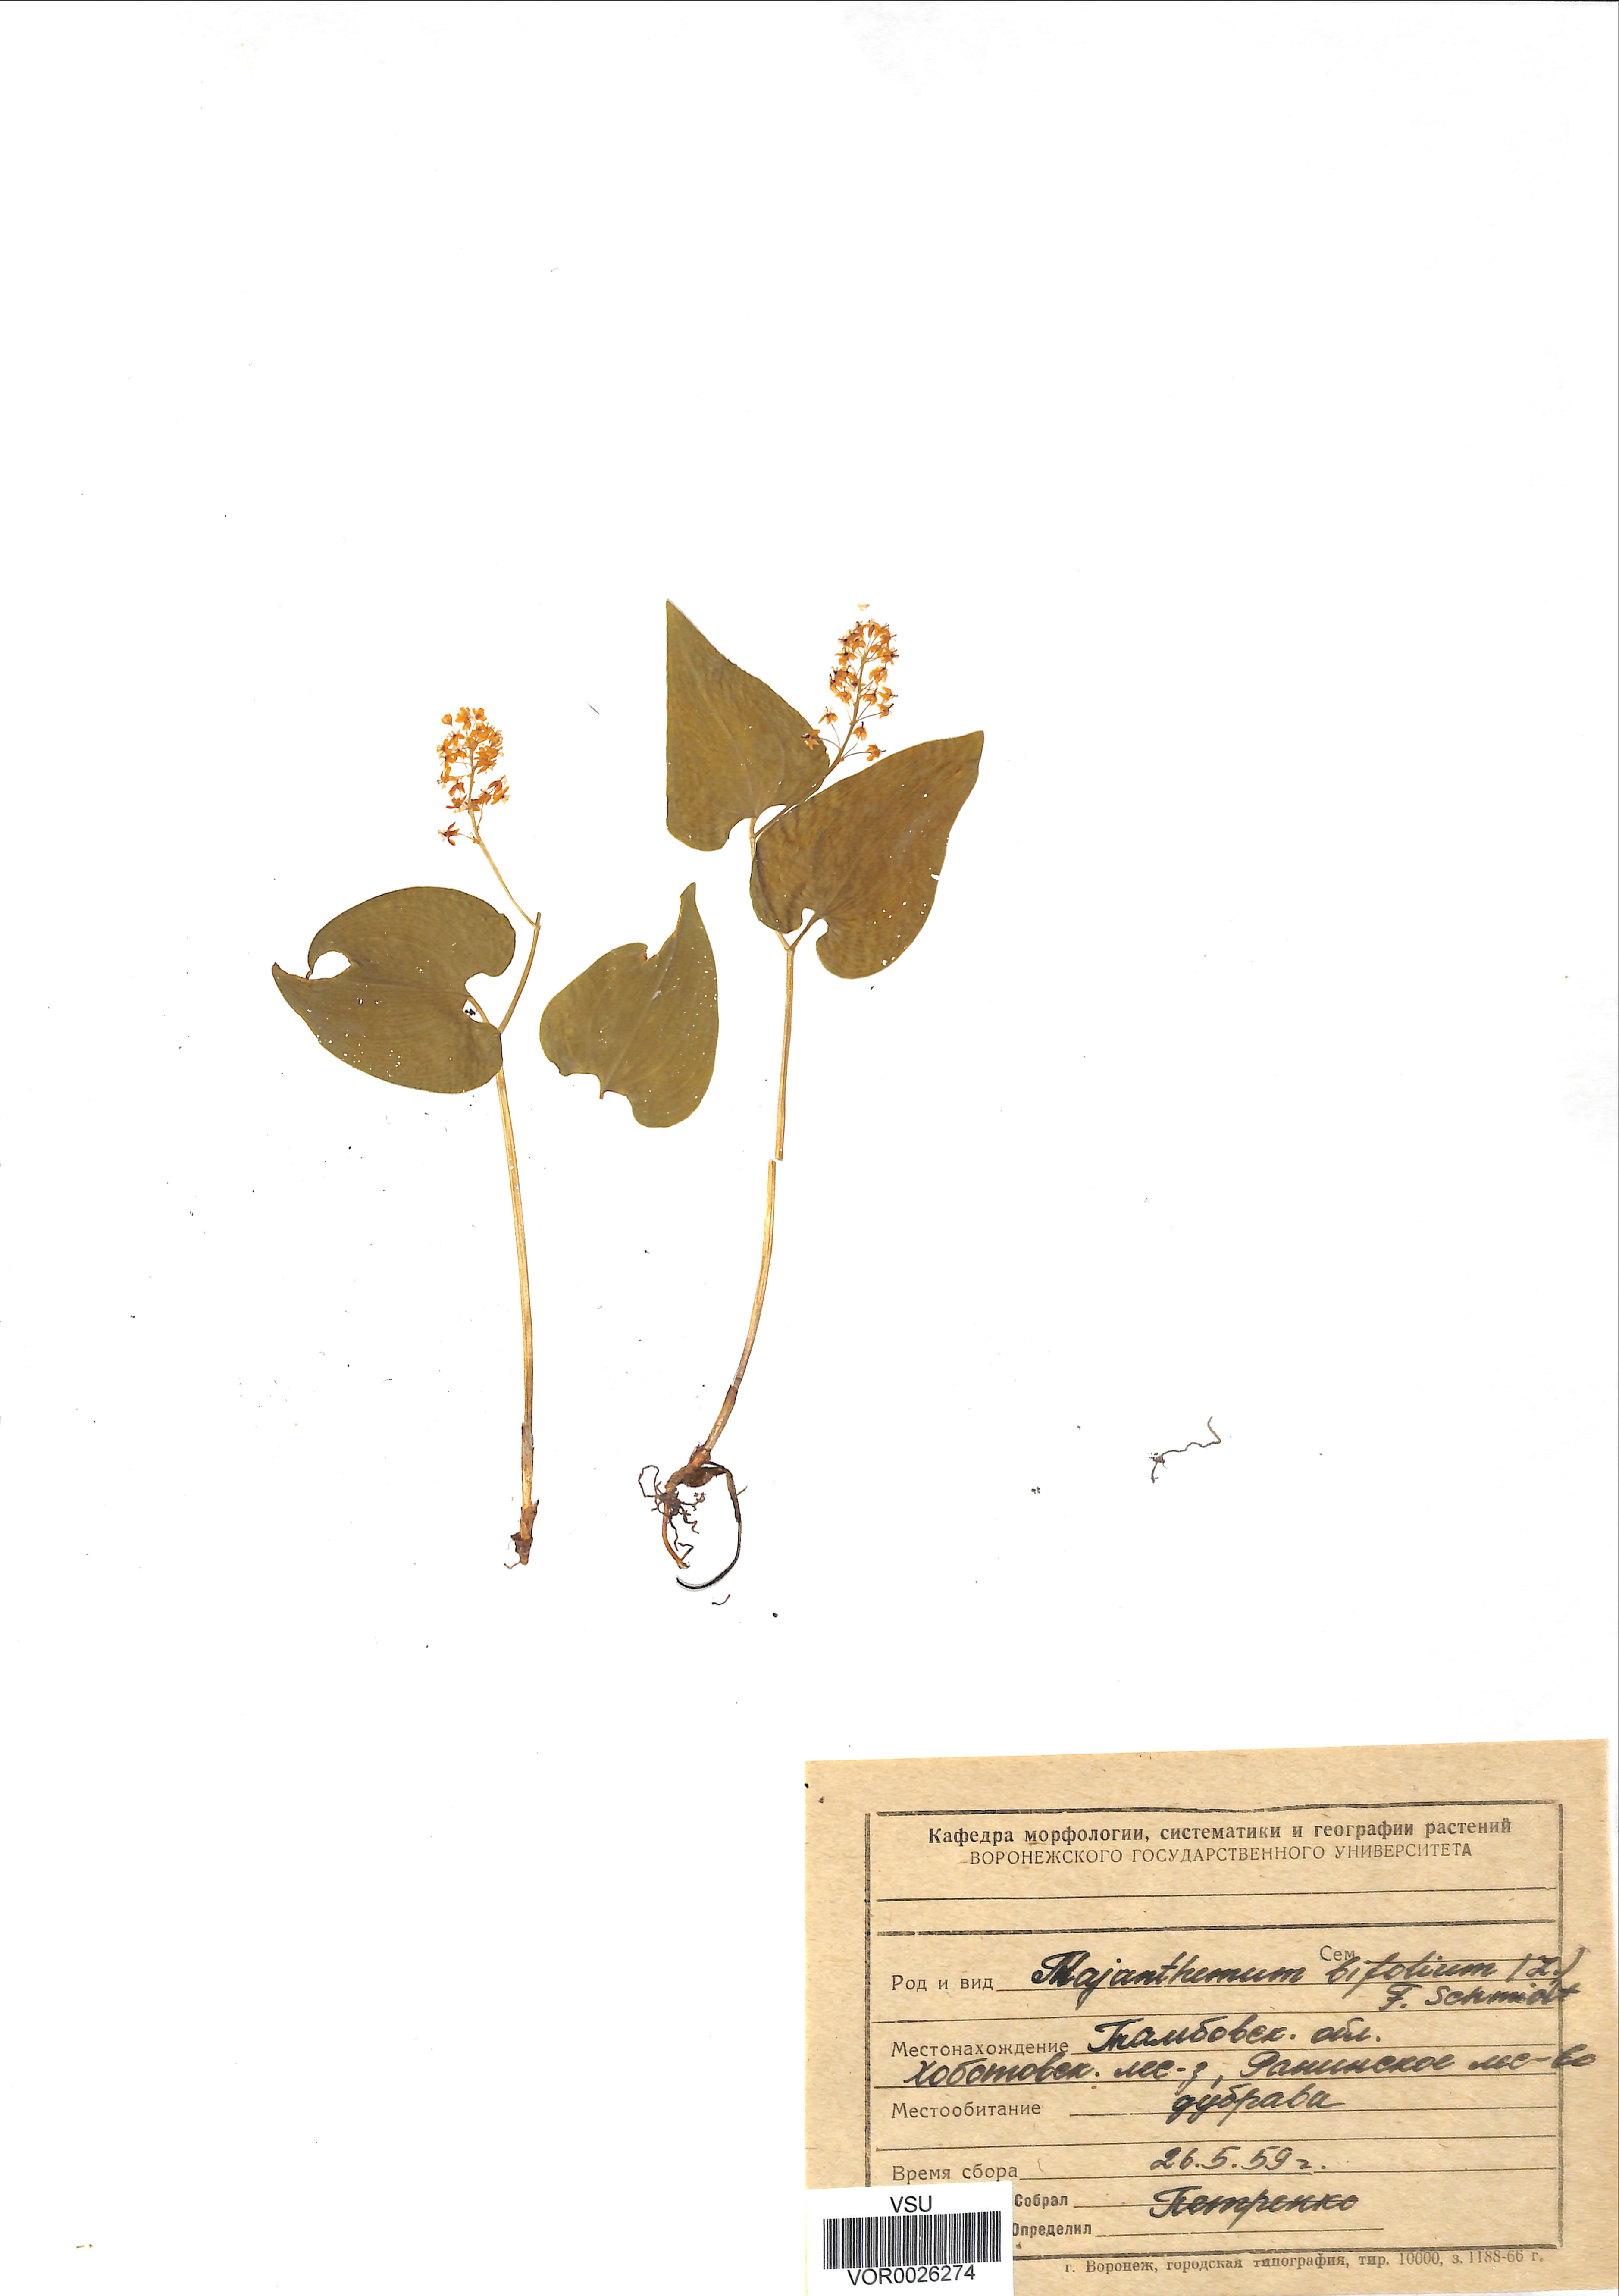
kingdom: Plantae
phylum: Tracheophyta
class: Liliopsida
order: Asparagales
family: Asparagaceae
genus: Maianthemum
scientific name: Maianthemum bifolium
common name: May lily
